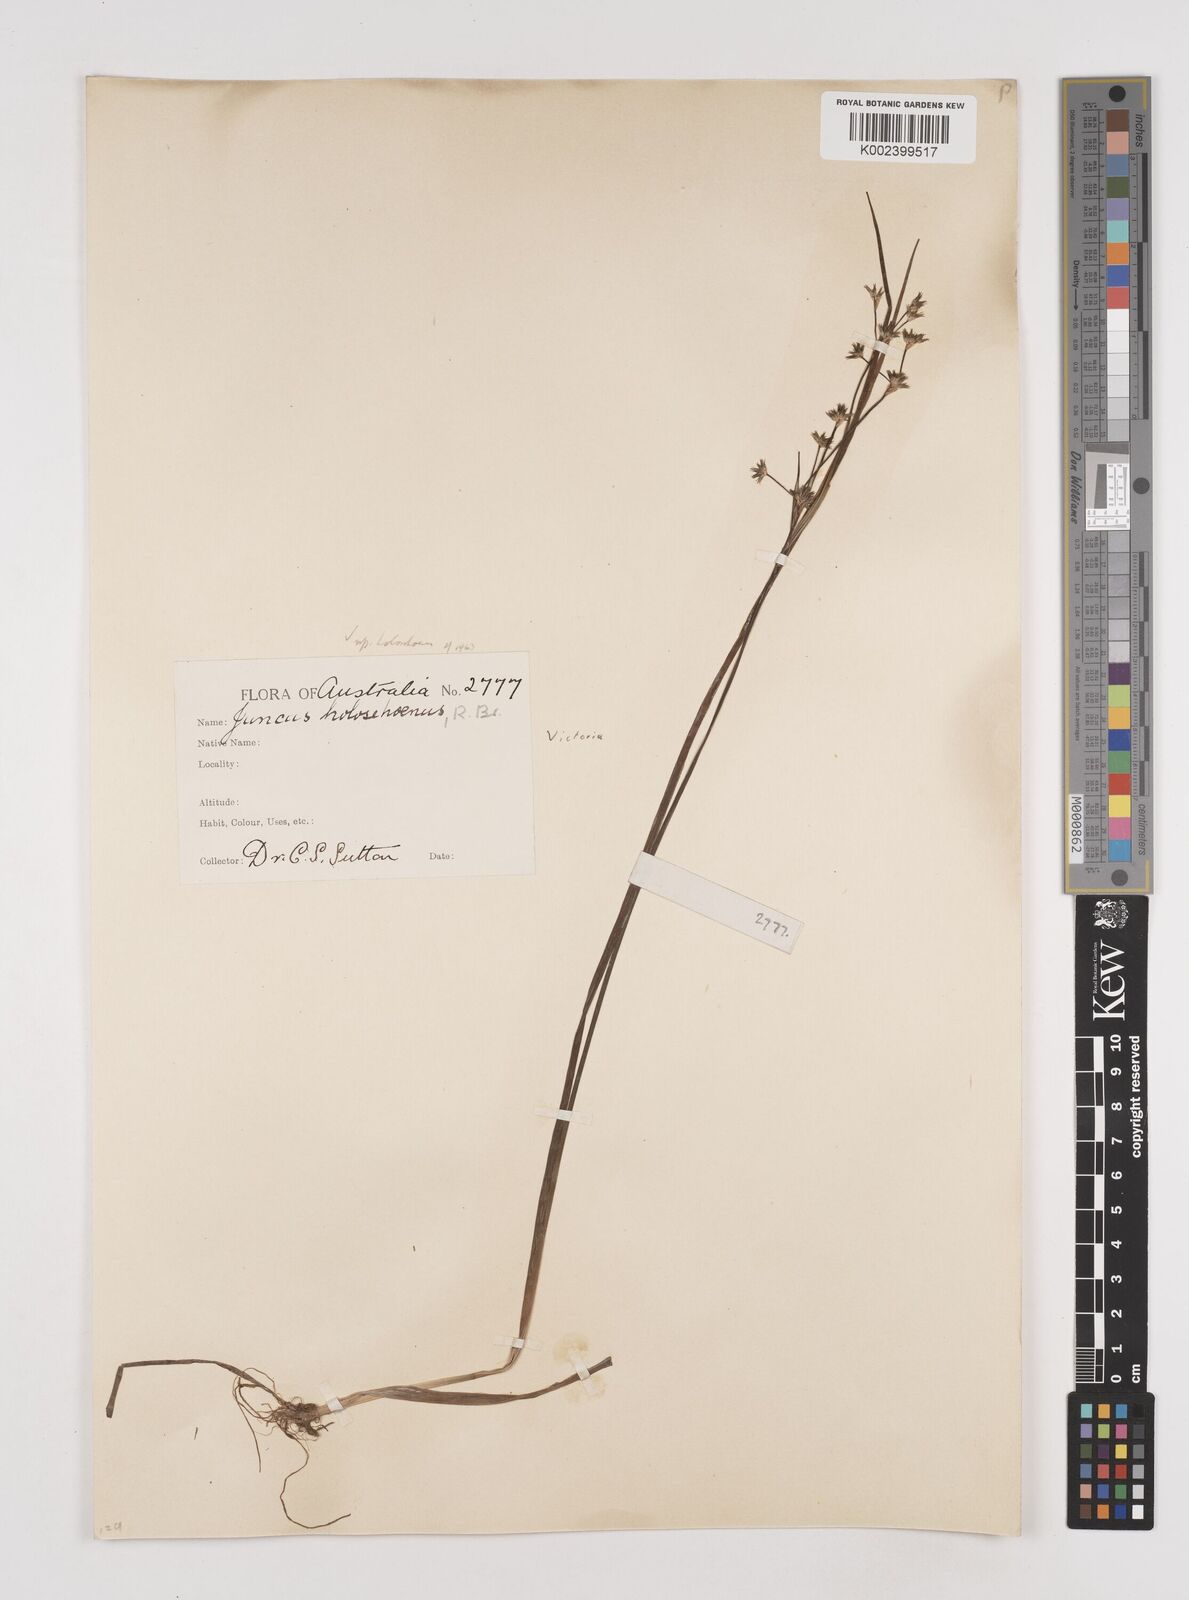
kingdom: Plantae
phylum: Tracheophyta
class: Liliopsida
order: Poales
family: Juncaceae
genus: Juncus
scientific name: Juncus holoschoenus
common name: Joint-leaf rush
